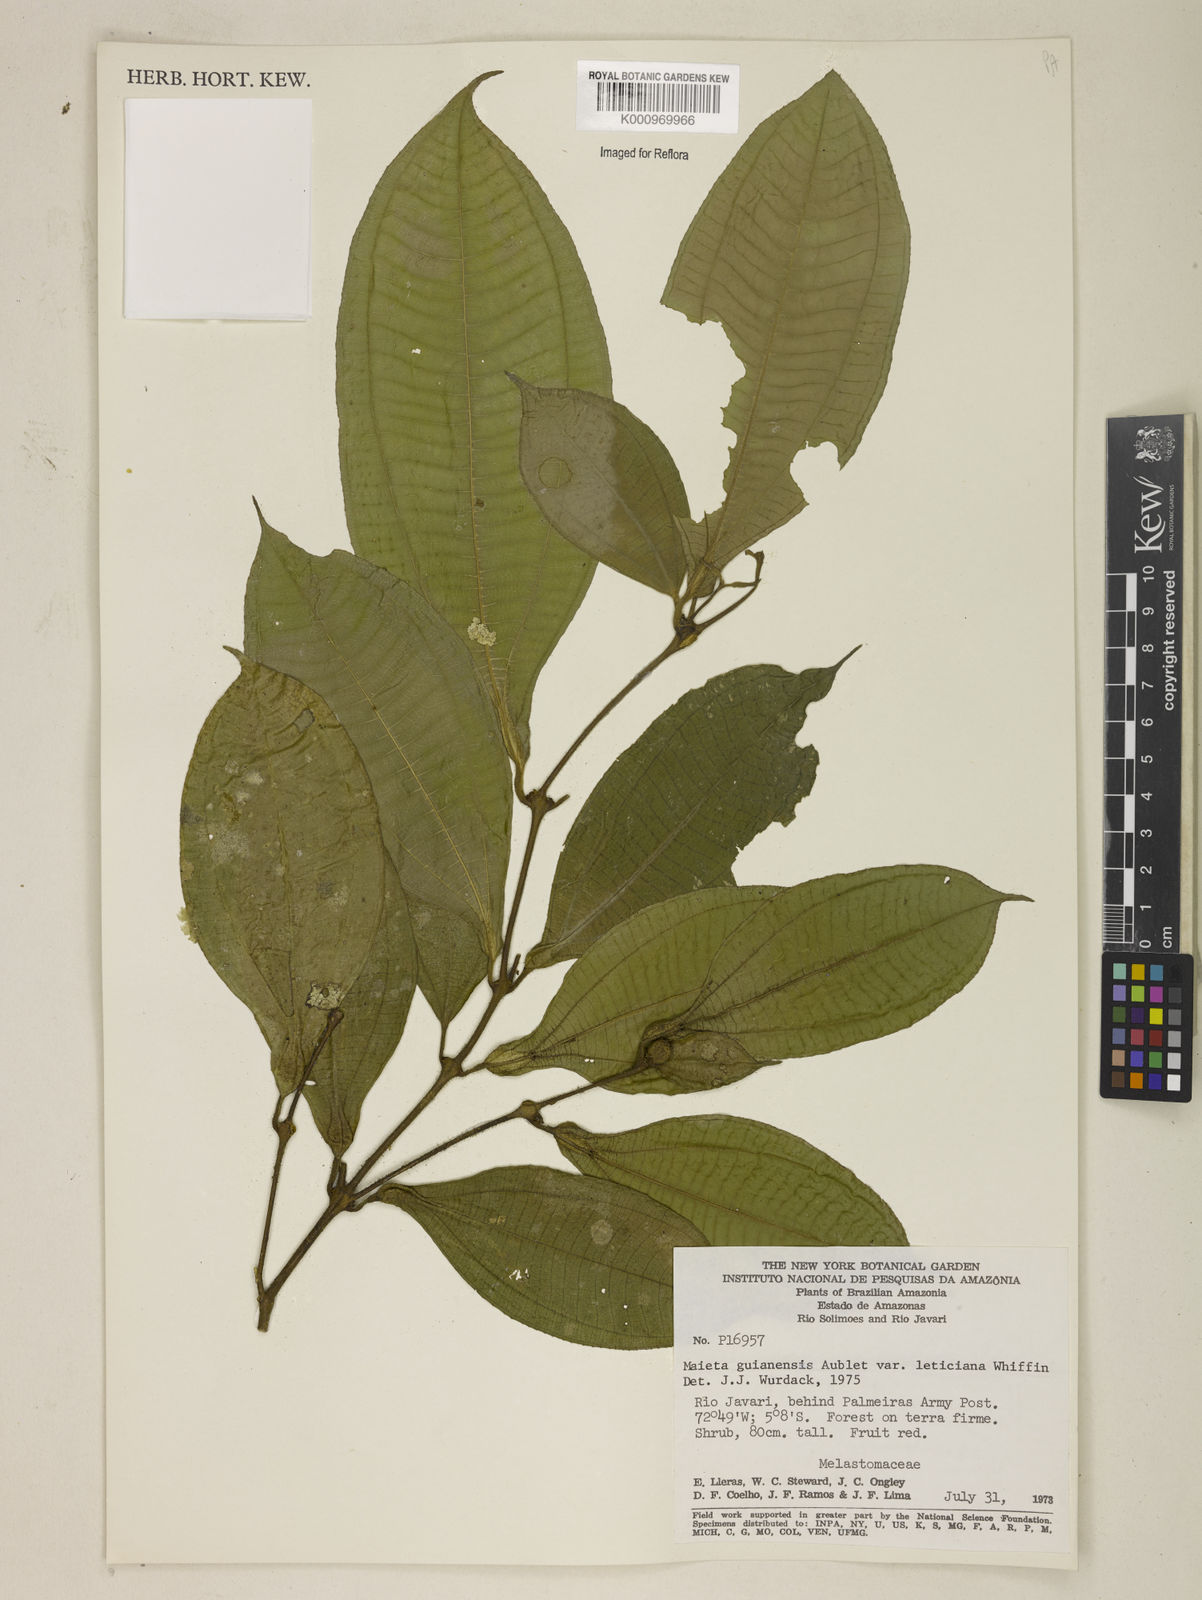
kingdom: Plantae
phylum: Tracheophyta
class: Magnoliopsida
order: Myrtales
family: Melastomataceae
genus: Miconia
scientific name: Miconia mayeta
